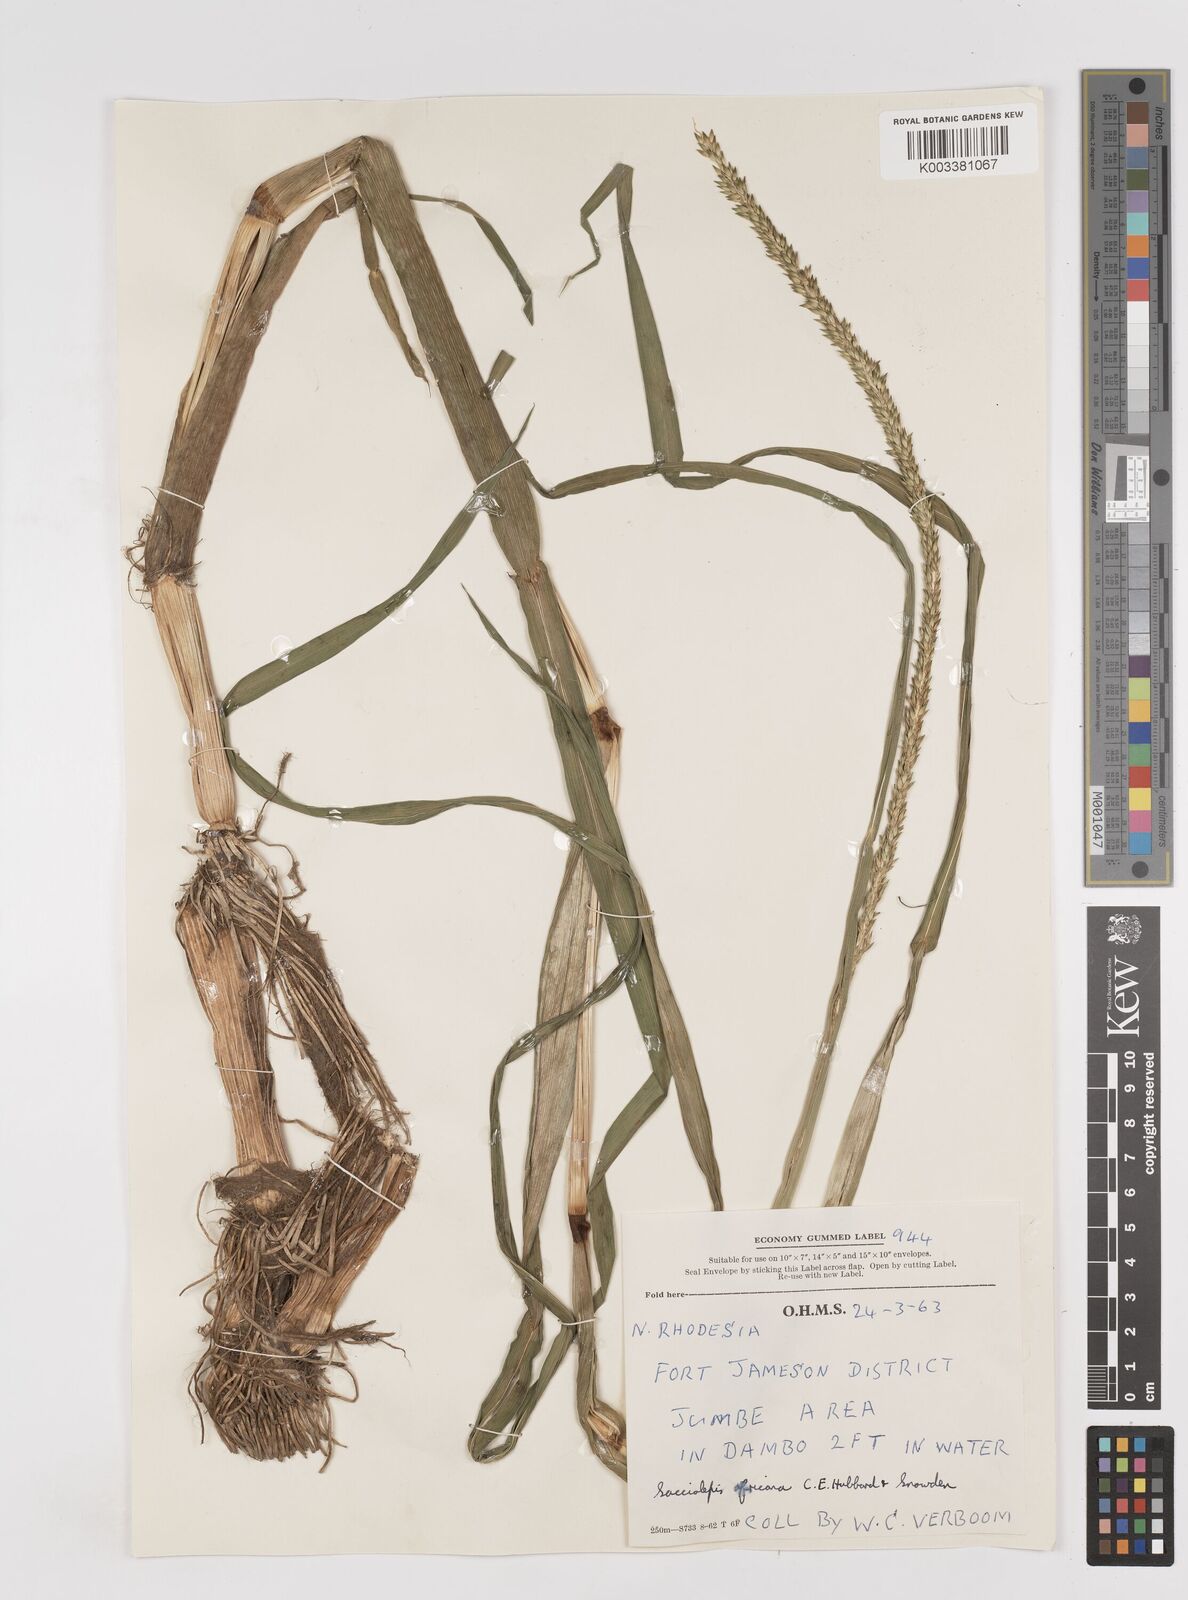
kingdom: Plantae
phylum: Tracheophyta
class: Liliopsida
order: Poales
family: Poaceae
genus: Sacciolepis
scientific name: Sacciolepis interrupta
